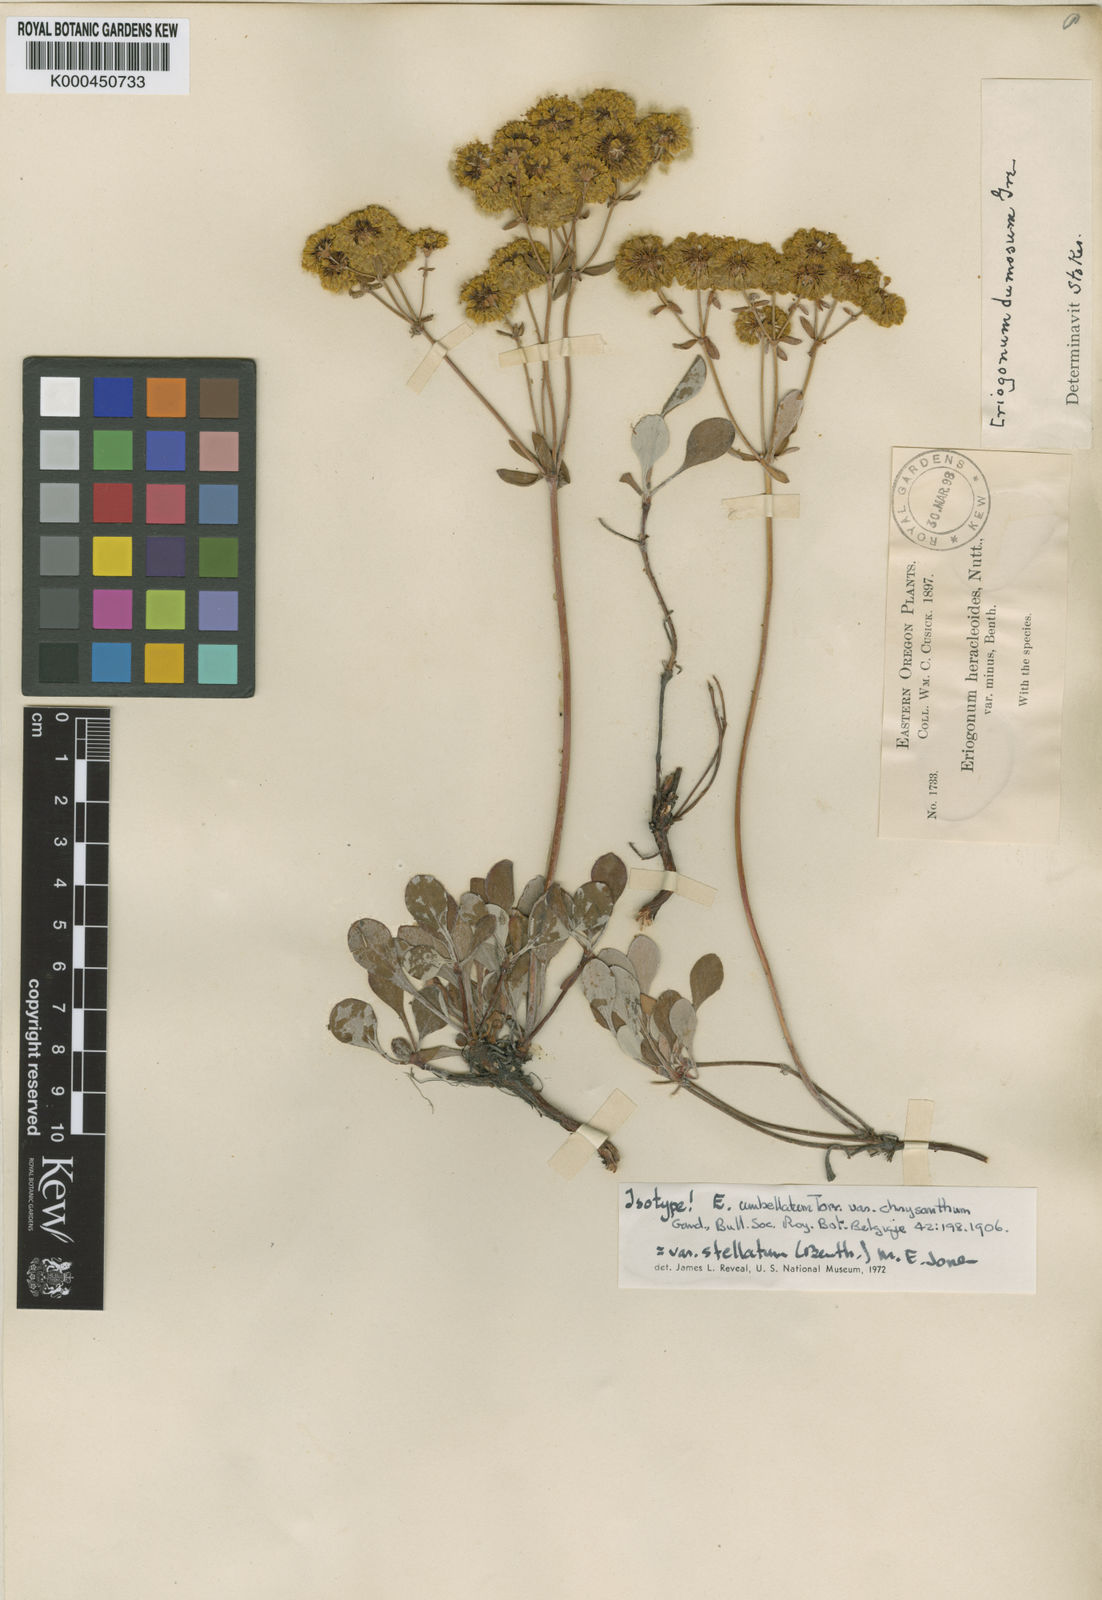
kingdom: Plantae
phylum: Tracheophyta
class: Magnoliopsida
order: Caryophyllales
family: Polygonaceae
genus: Eriogonum
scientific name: Eriogonum umbellatum
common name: Sulfur-buckwheat
